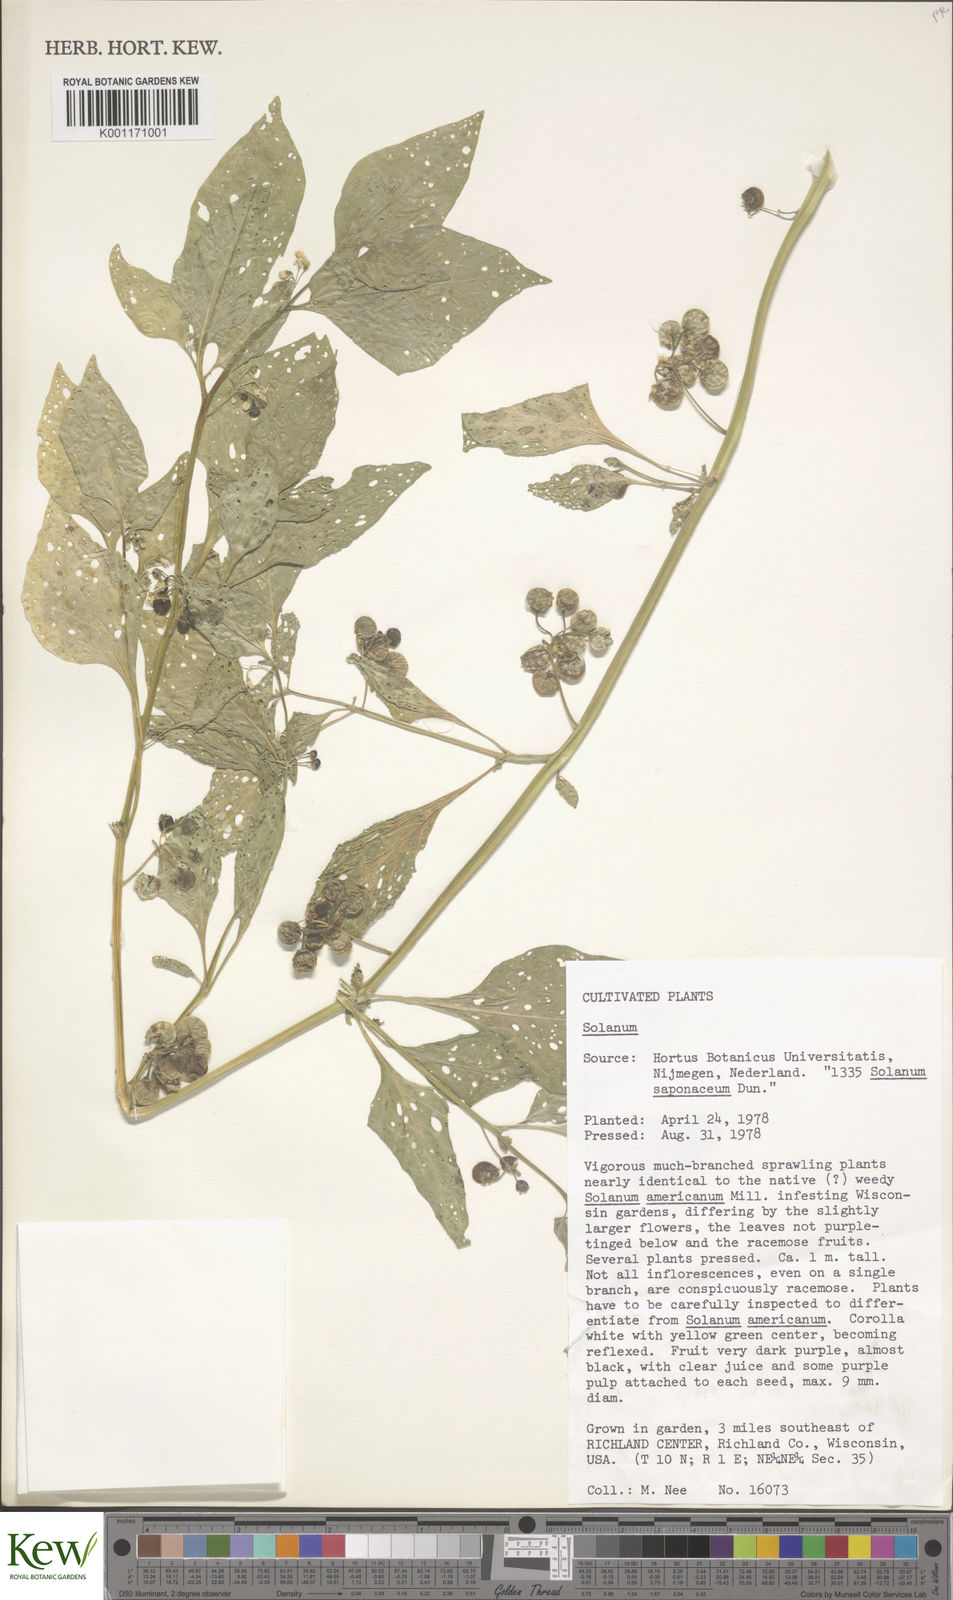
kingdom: Plantae
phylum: Tracheophyta
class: Magnoliopsida
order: Solanales
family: Solanaceae
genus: Solanum
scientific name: Solanum
